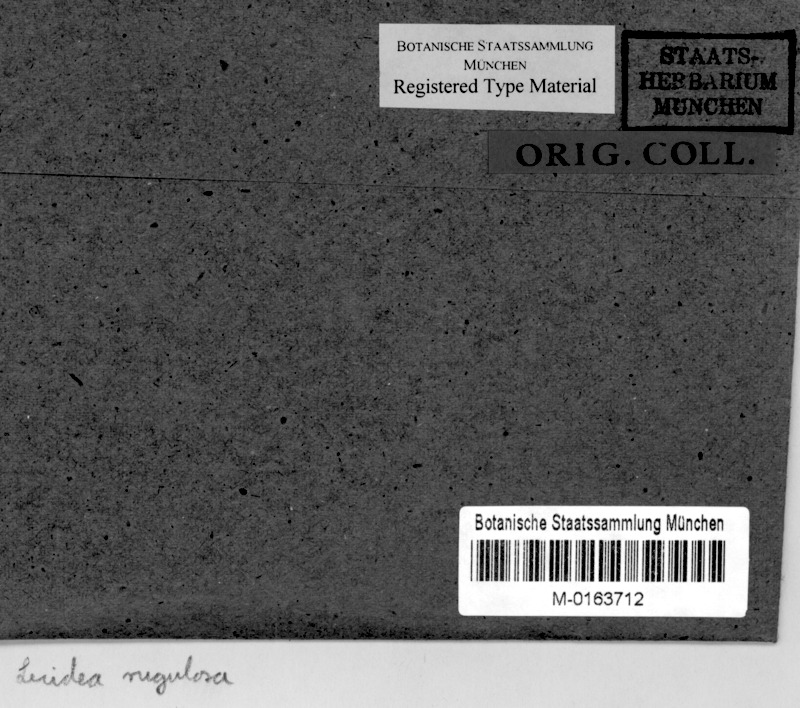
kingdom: Fungi
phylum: Ascomycota
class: Lecanoromycetes
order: Lecideales
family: Lecideaceae
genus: Lecidea
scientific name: Lecidea
